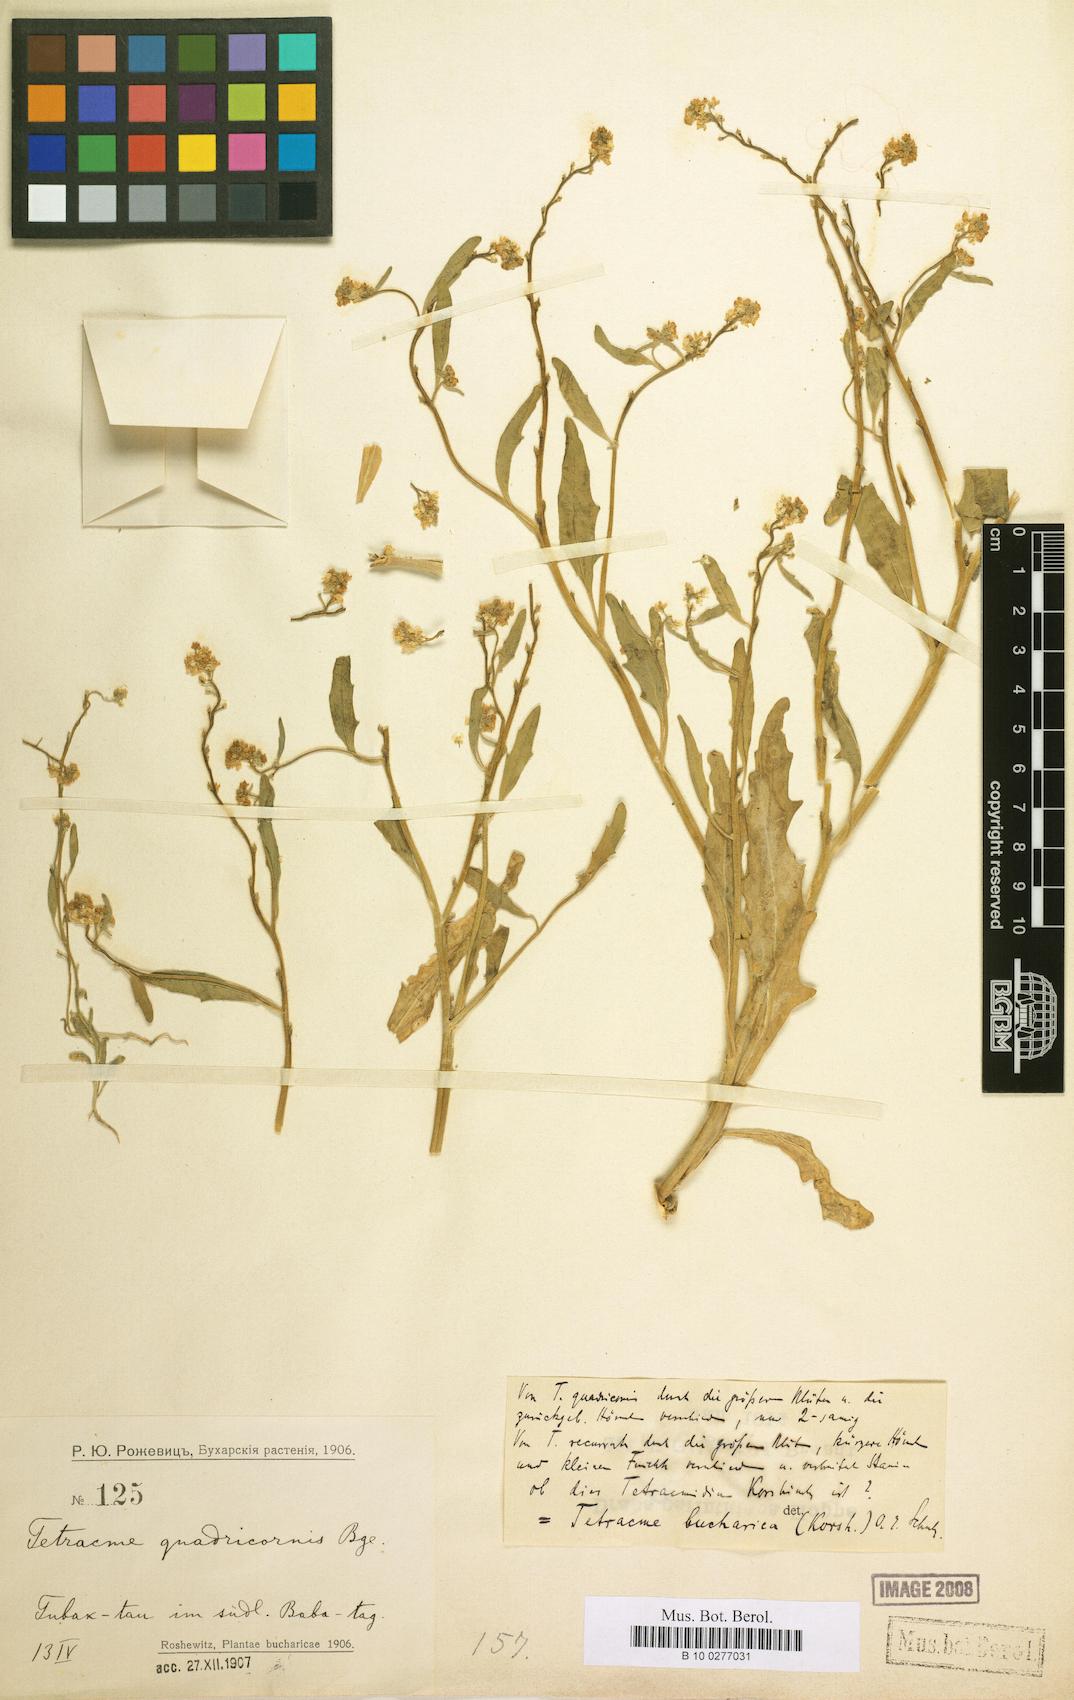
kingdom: Plantae
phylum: Tracheophyta
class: Magnoliopsida
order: Brassicales
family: Brassicaceae
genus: Tetracme
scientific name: Tetracme bucharica
